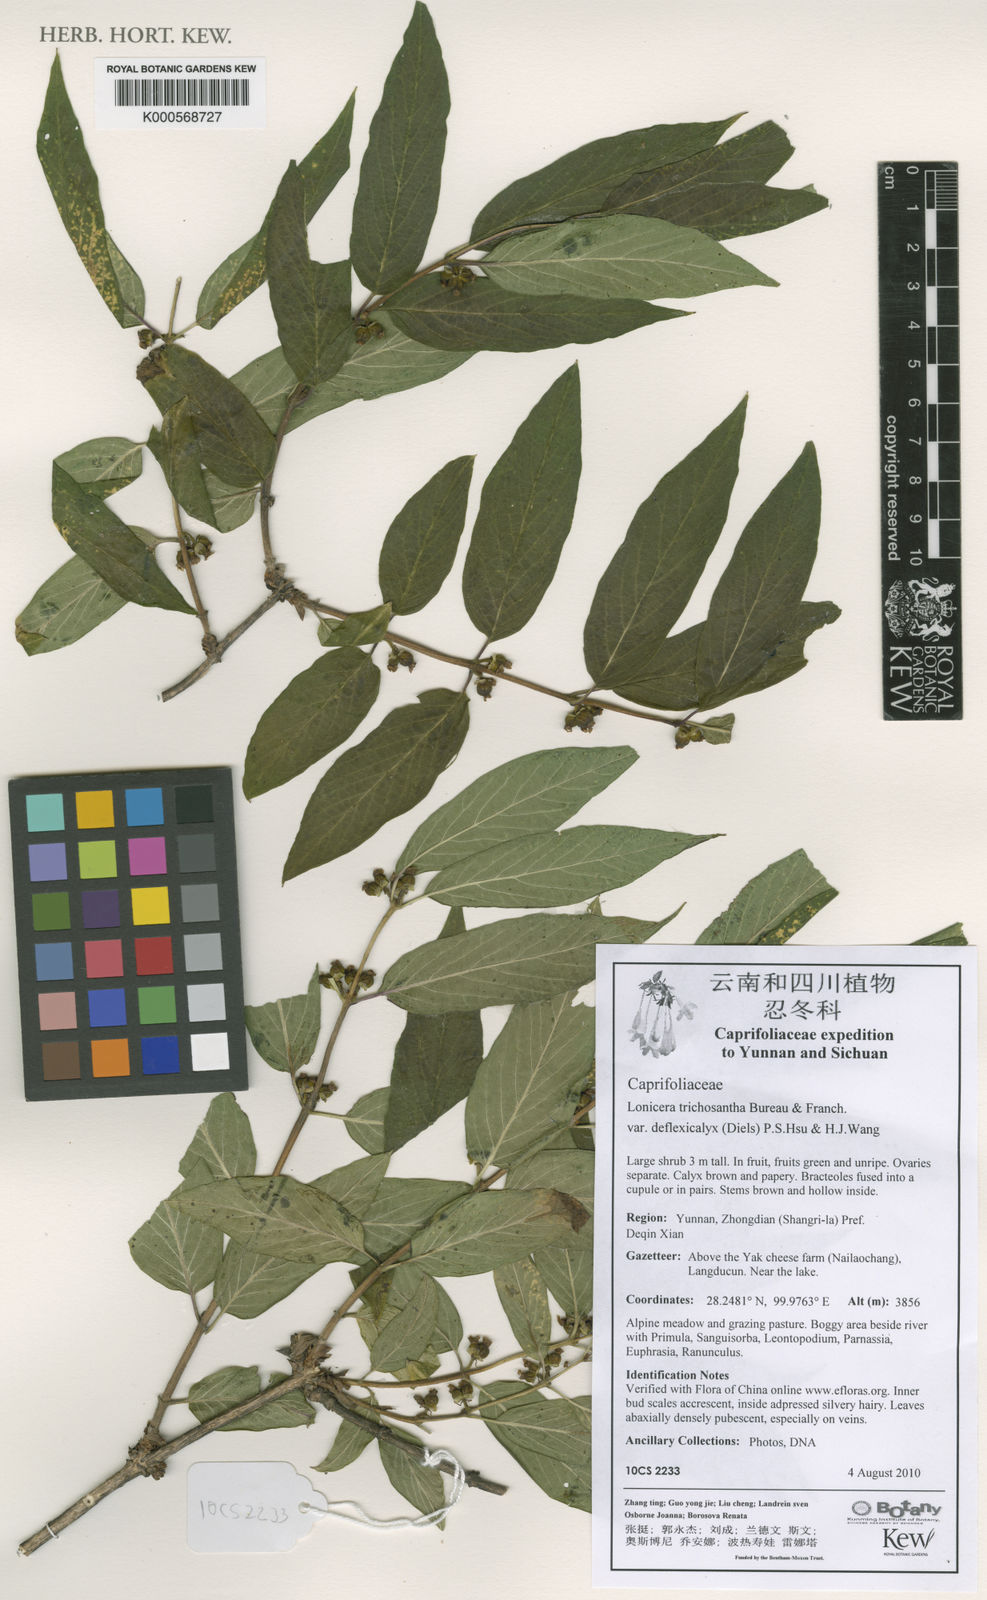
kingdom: Plantae
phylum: Tracheophyta
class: Magnoliopsida
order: Dipsacales
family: Caprifoliaceae
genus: Lonicera
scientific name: Lonicera trichosantha
